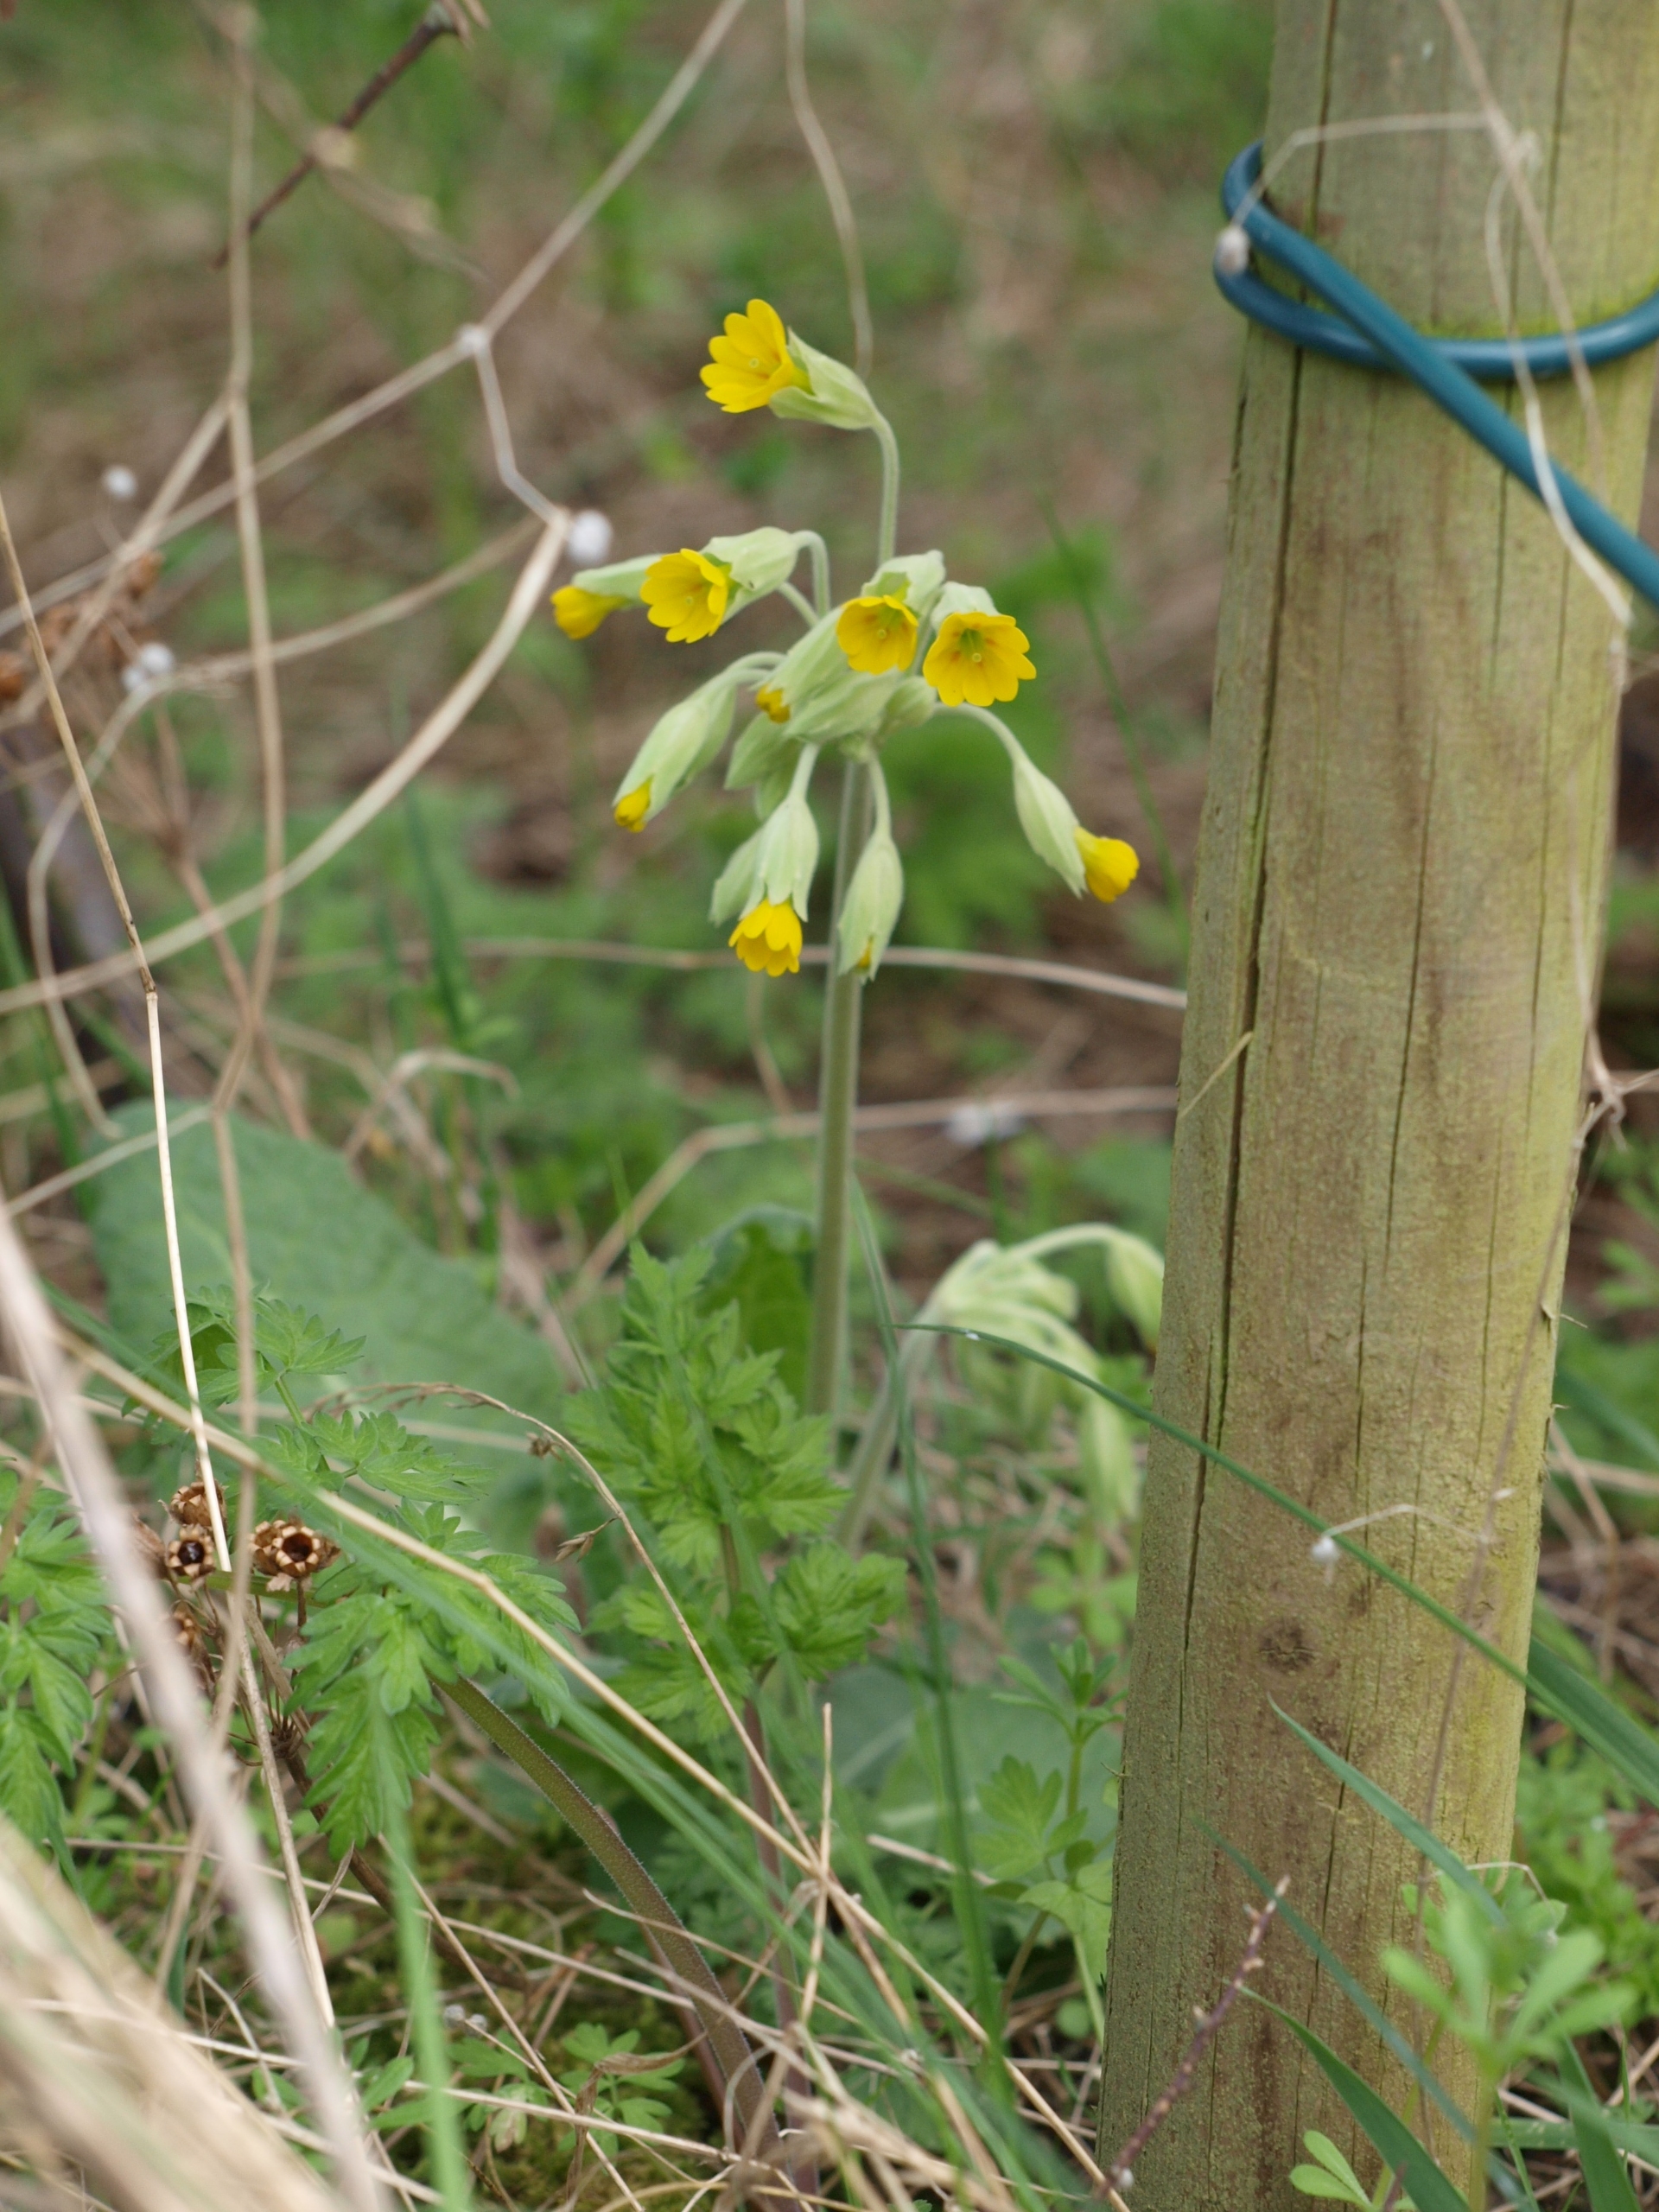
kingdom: Plantae
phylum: Tracheophyta
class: Magnoliopsida
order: Ericales
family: Primulaceae
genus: Primula
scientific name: Primula veris
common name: Hulkravet kodriver
